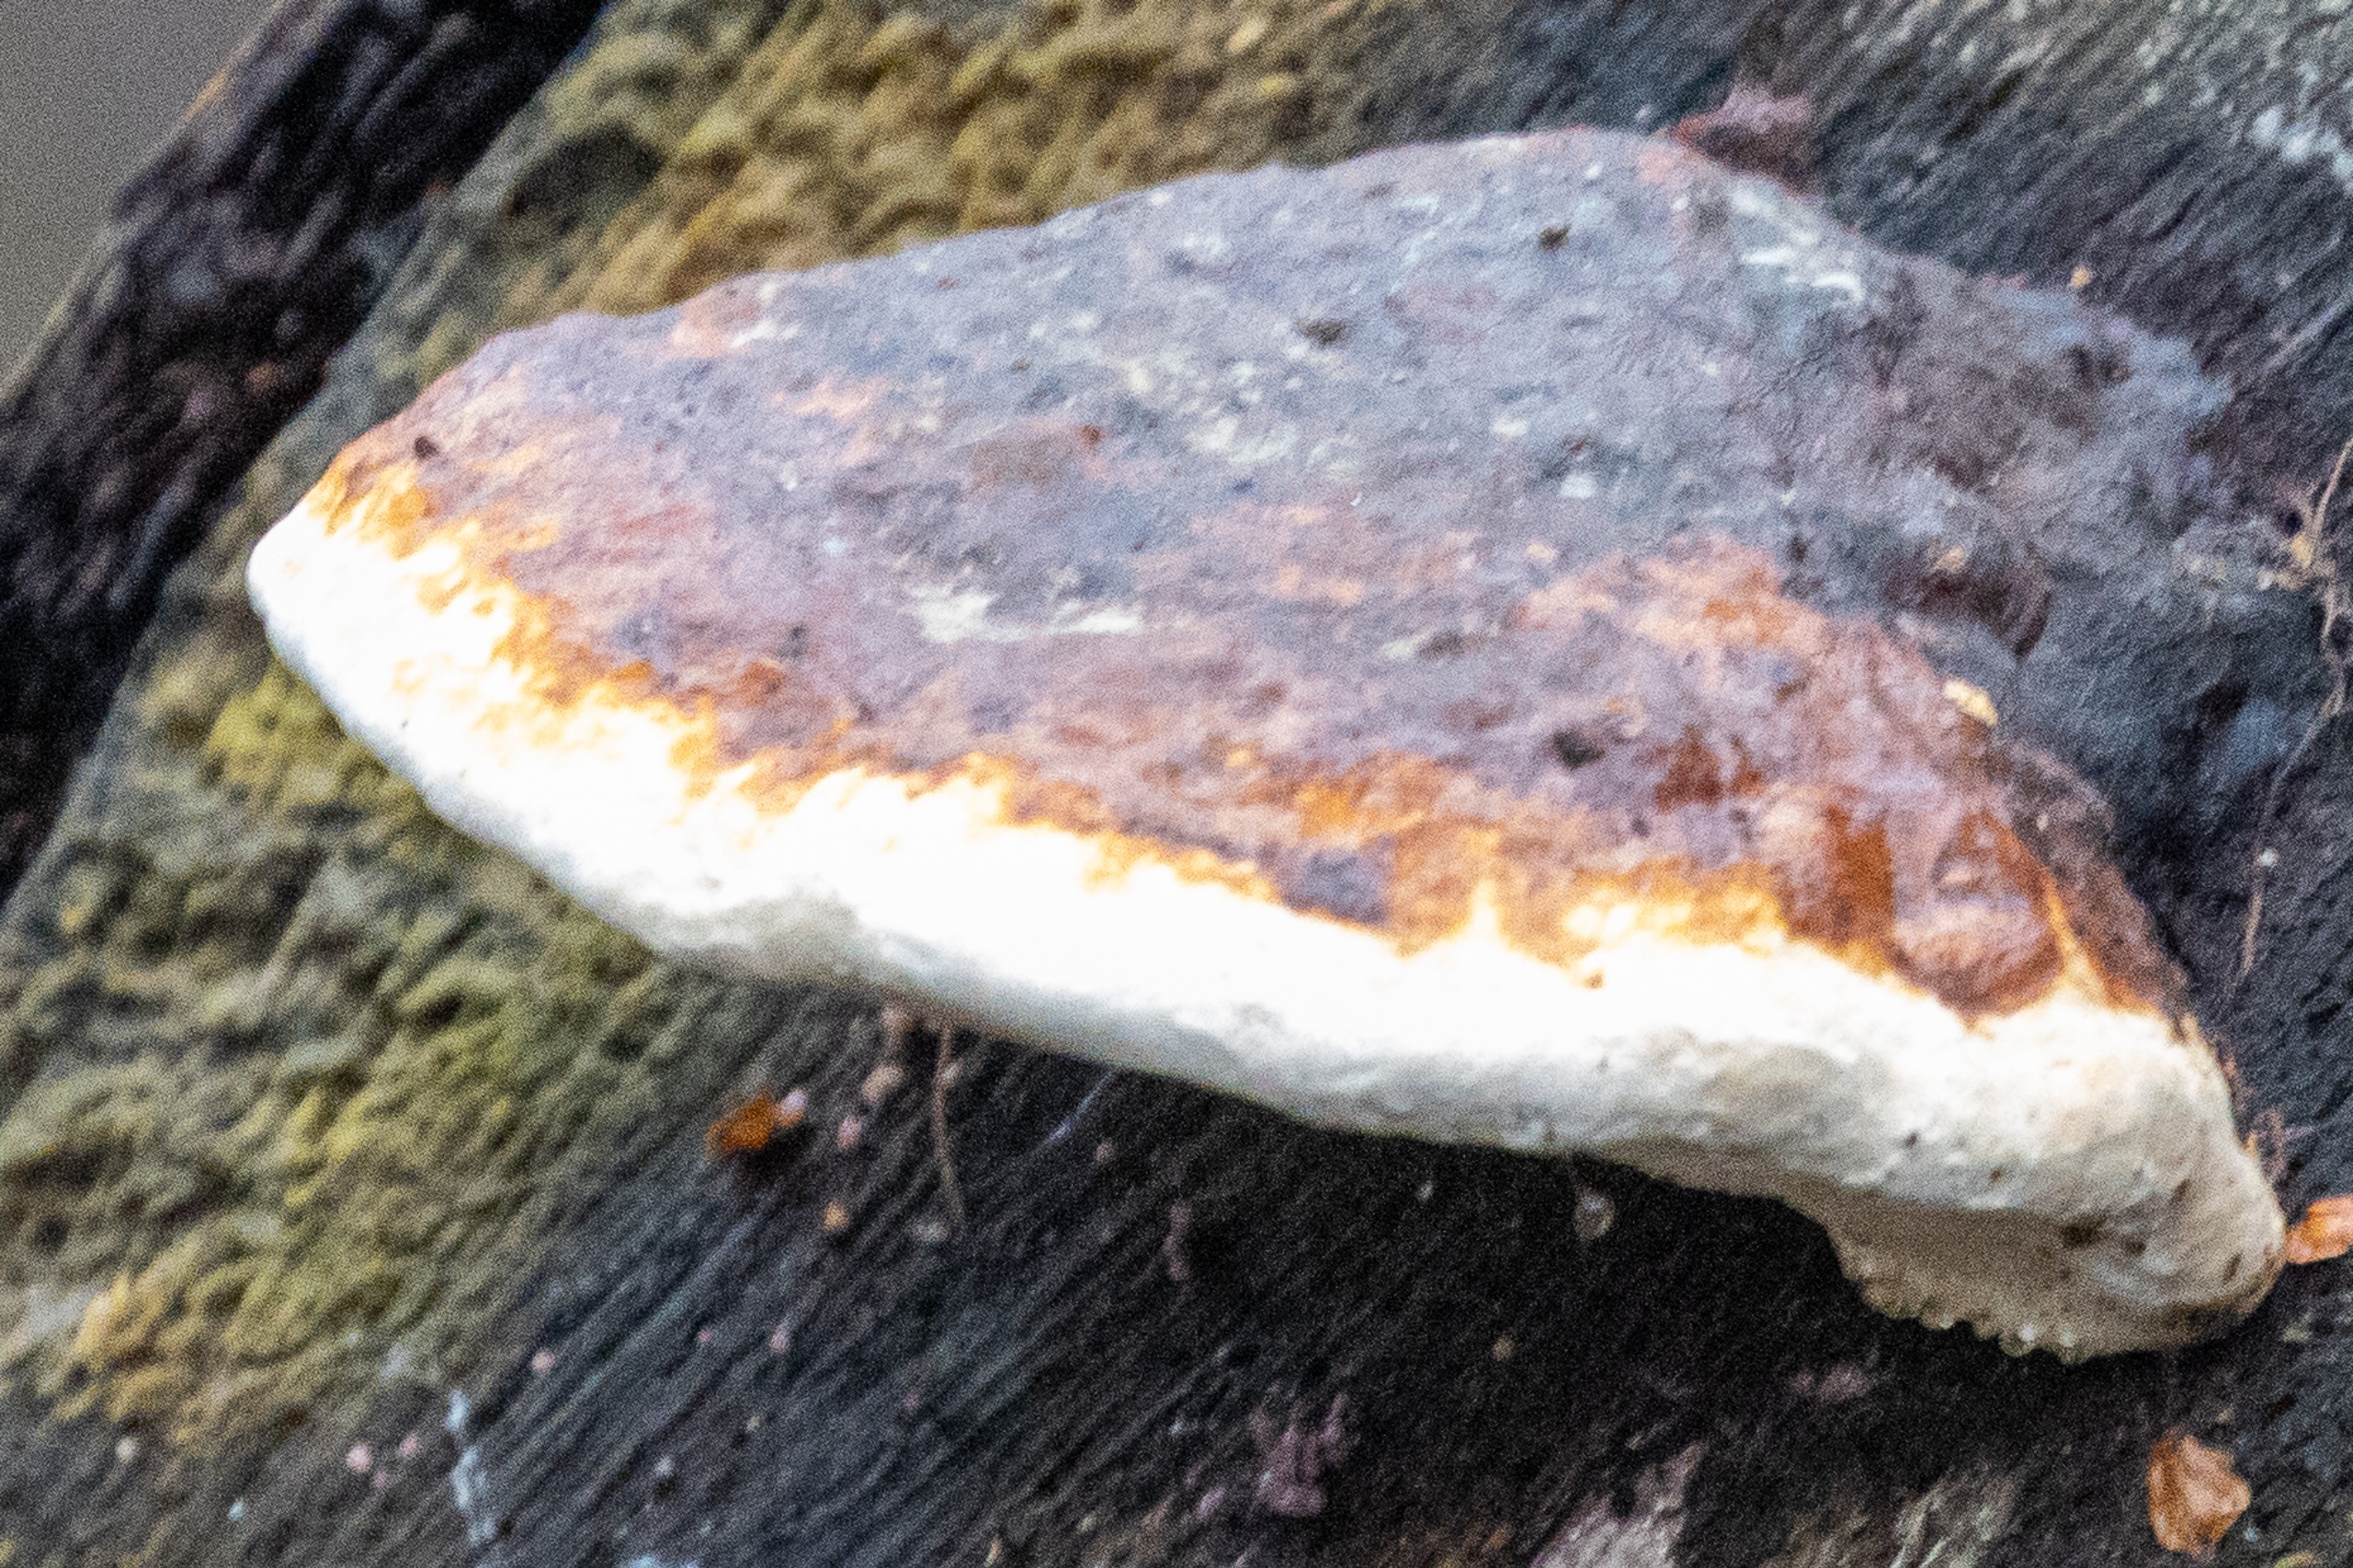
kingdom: Fungi
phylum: Basidiomycota
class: Agaricomycetes
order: Polyporales
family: Fomitopsidaceae
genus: Fomitopsis
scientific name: Fomitopsis pinicola
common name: Randbæltet hovporesvamp
